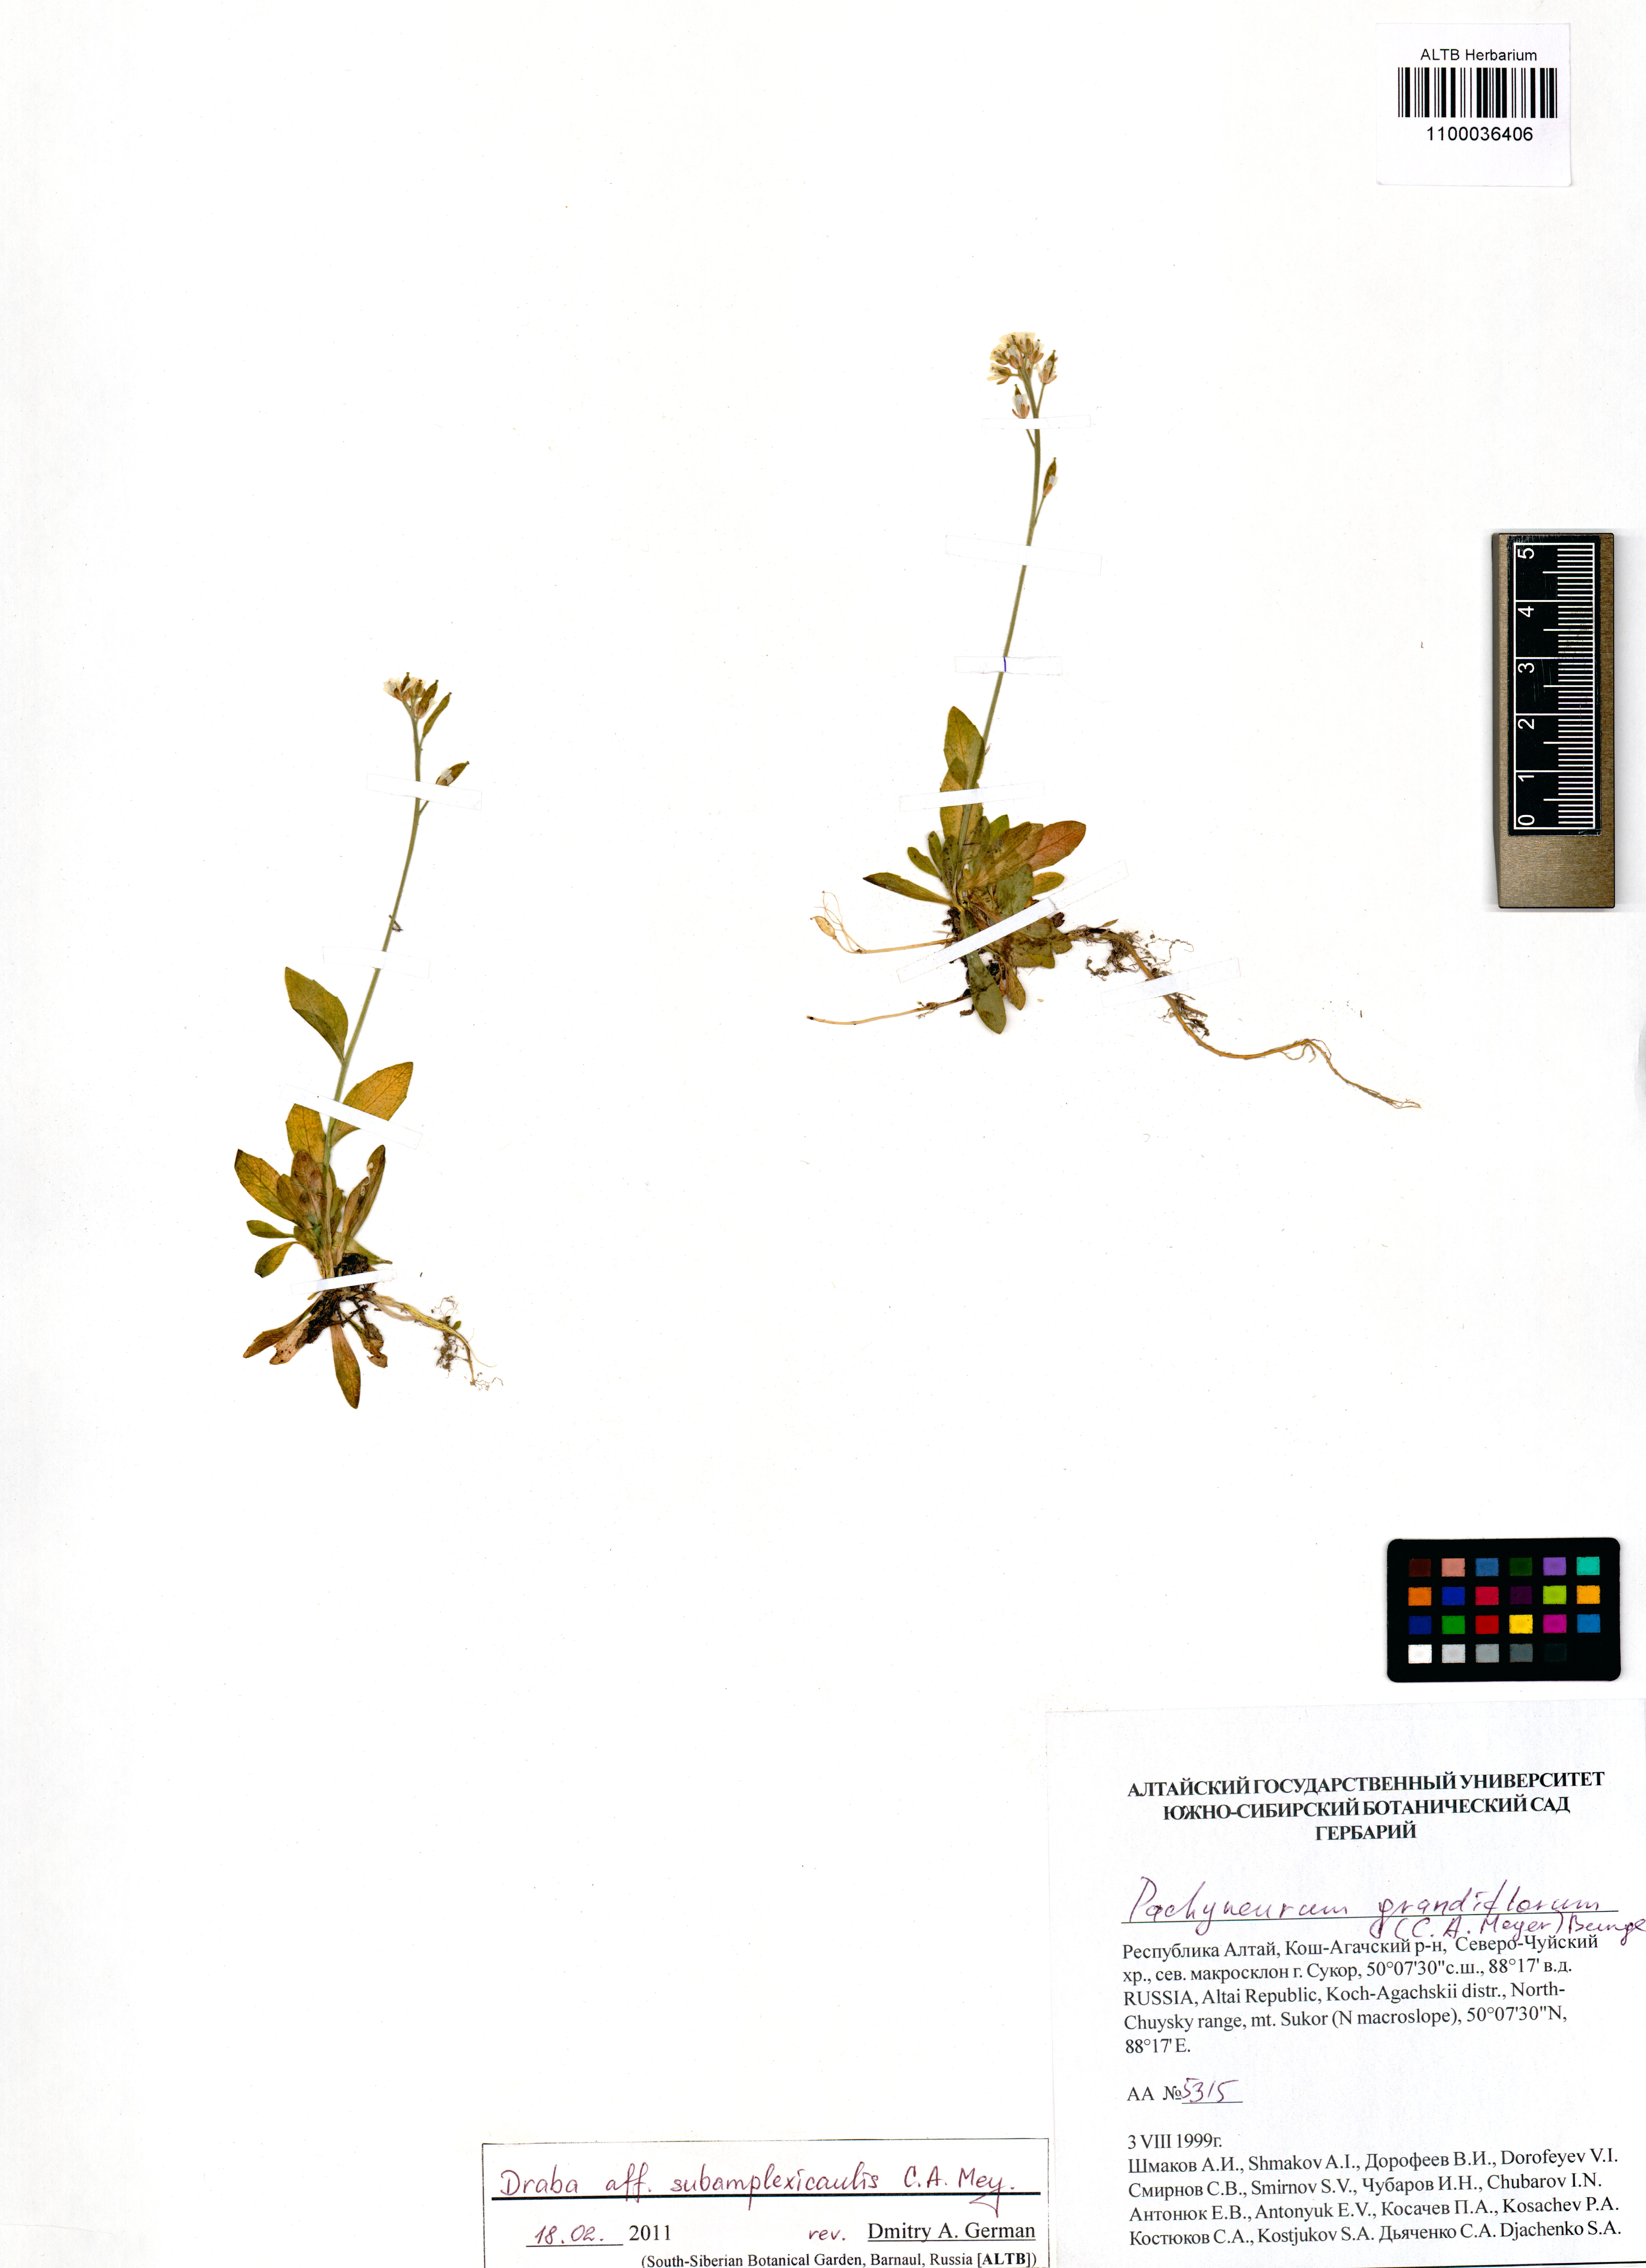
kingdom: Plantae
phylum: Tracheophyta
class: Magnoliopsida
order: Brassicales
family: Brassicaceae
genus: Draba
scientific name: Draba subamplexicaulis
